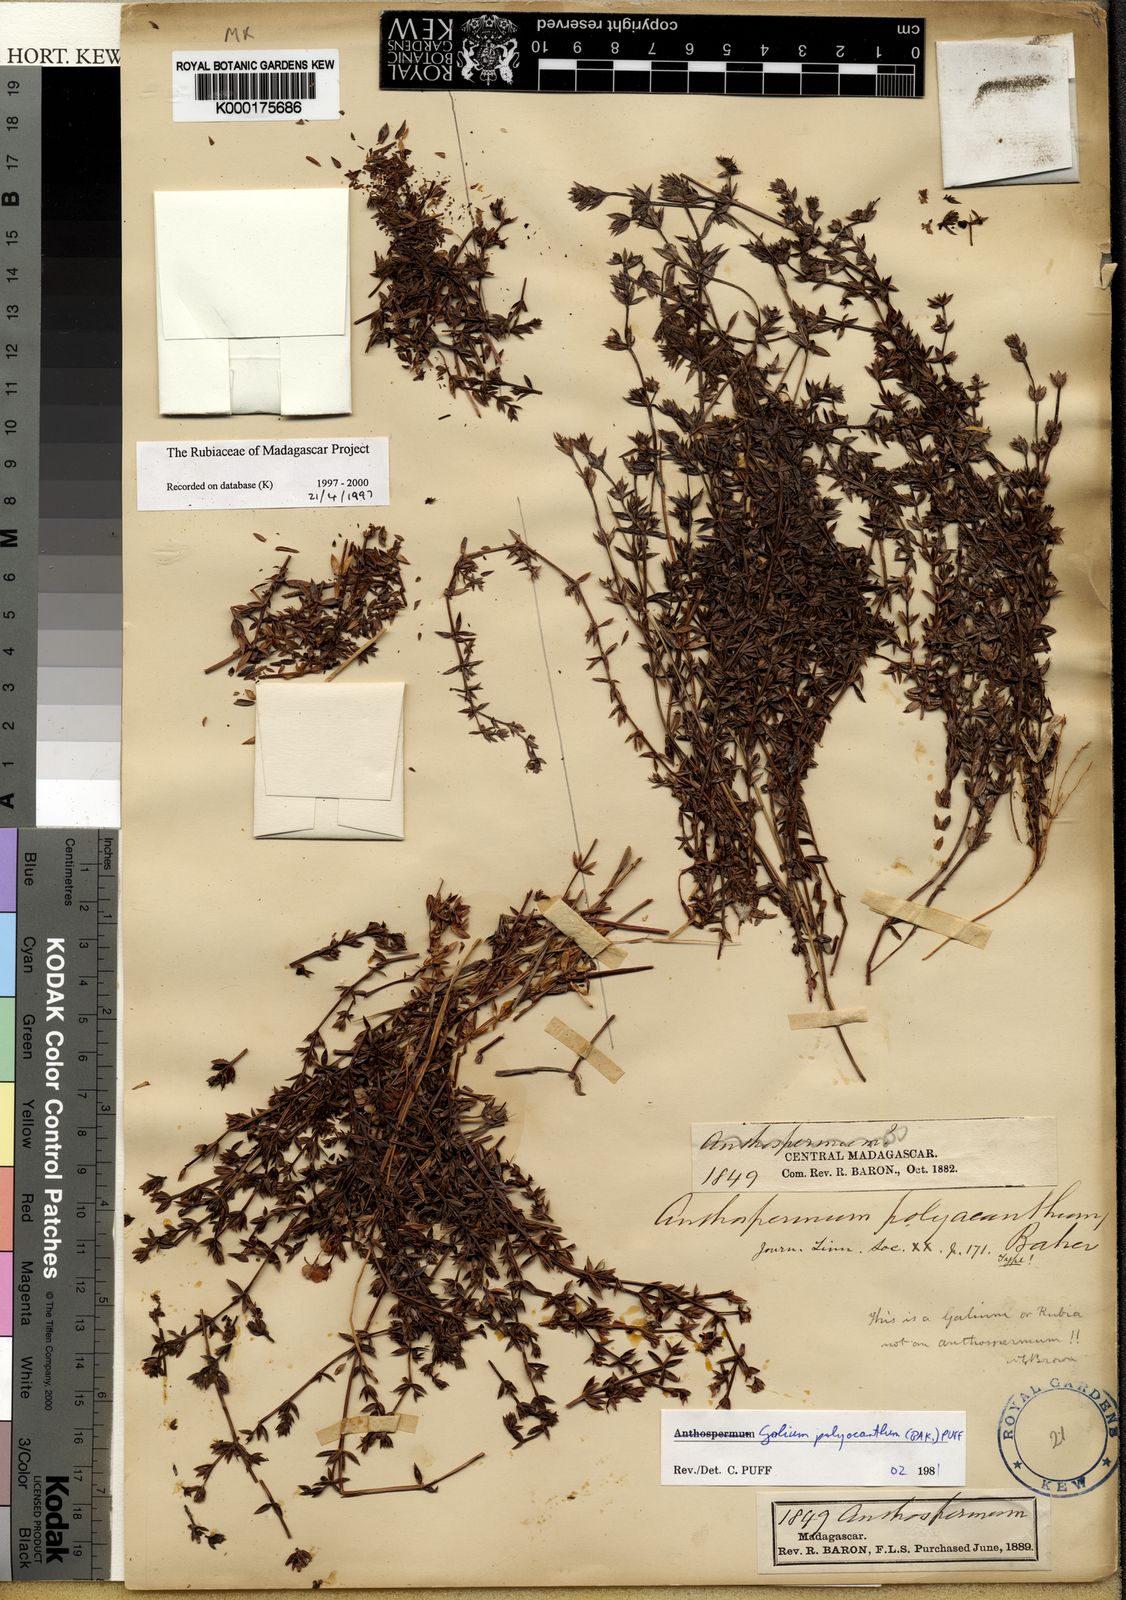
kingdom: Plantae
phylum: Tracheophyta
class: Magnoliopsida
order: Gentianales
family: Rubiaceae
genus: Galium
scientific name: Galium polyacanthum
